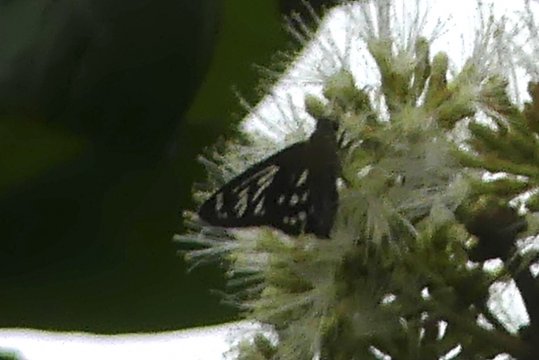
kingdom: Animalia
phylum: Arthropoda
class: Insecta
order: Lepidoptera
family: Hesperiidae
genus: Phanus
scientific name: Phanus marshallii
